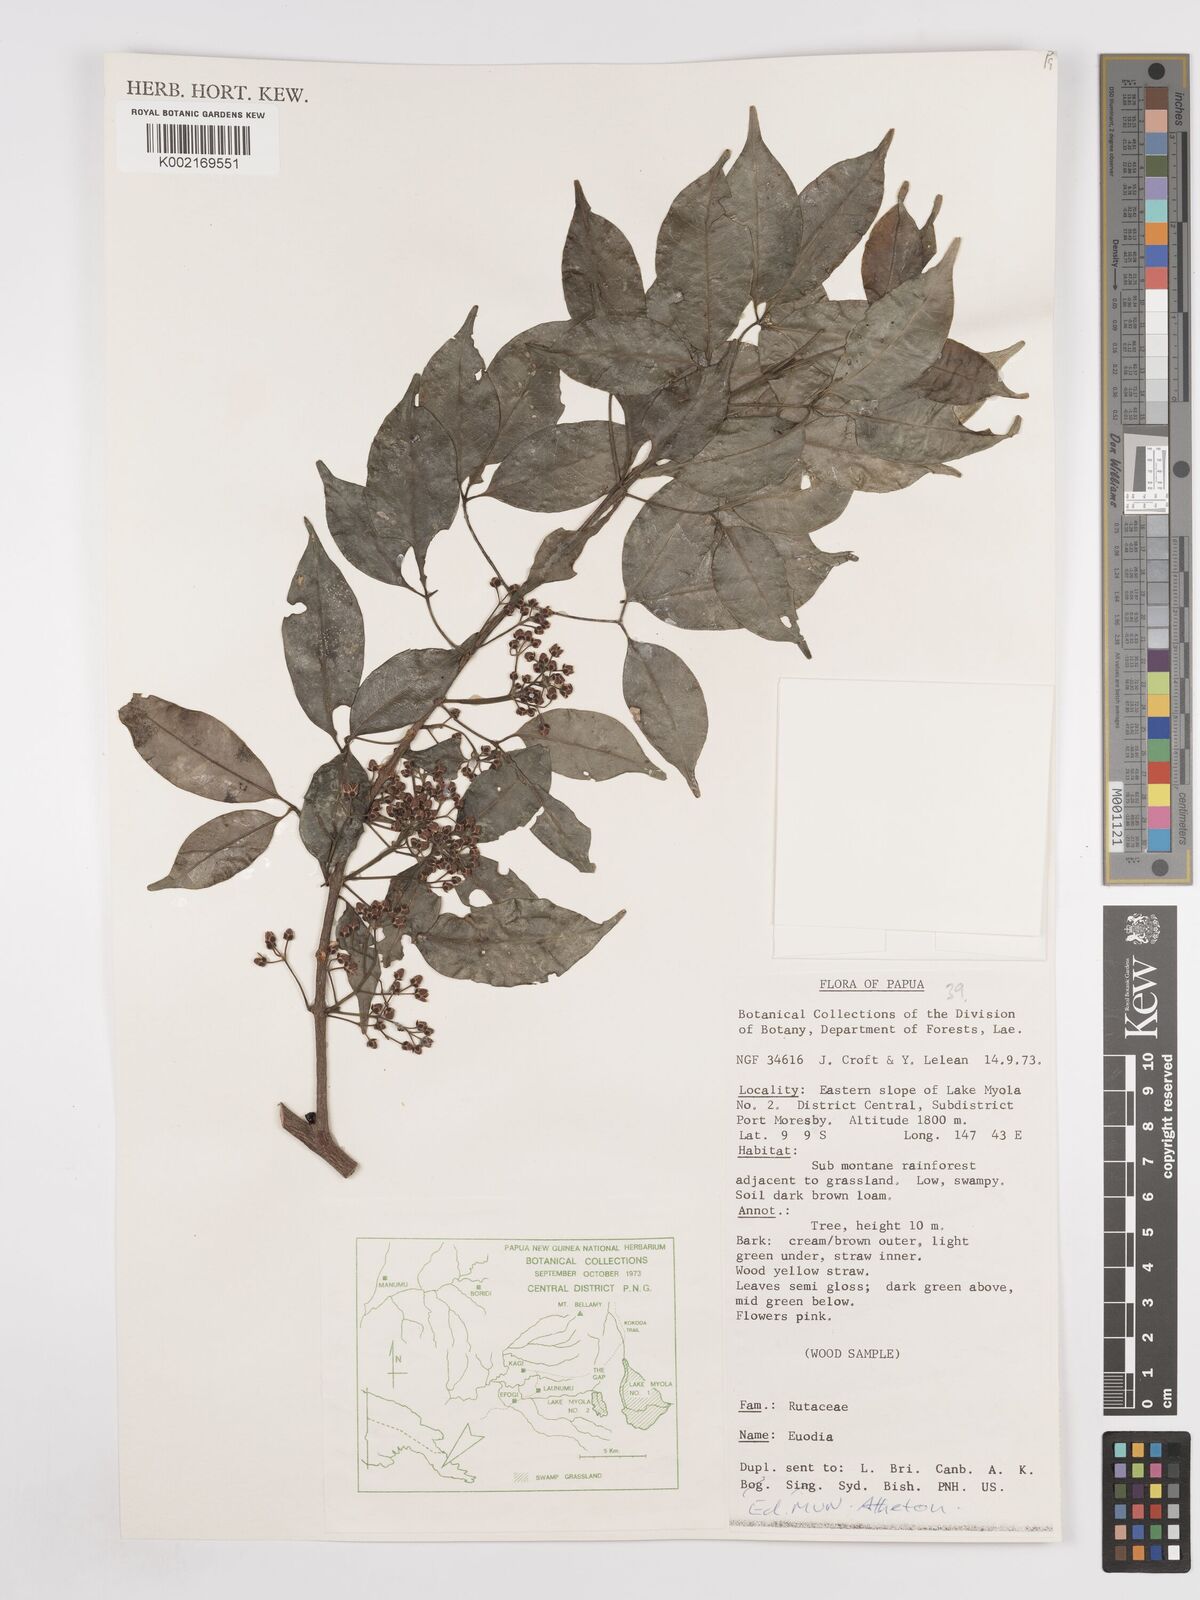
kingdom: Plantae
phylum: Tracheophyta
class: Magnoliopsida
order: Sapindales
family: Rutaceae
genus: Euodia
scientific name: Euodia
